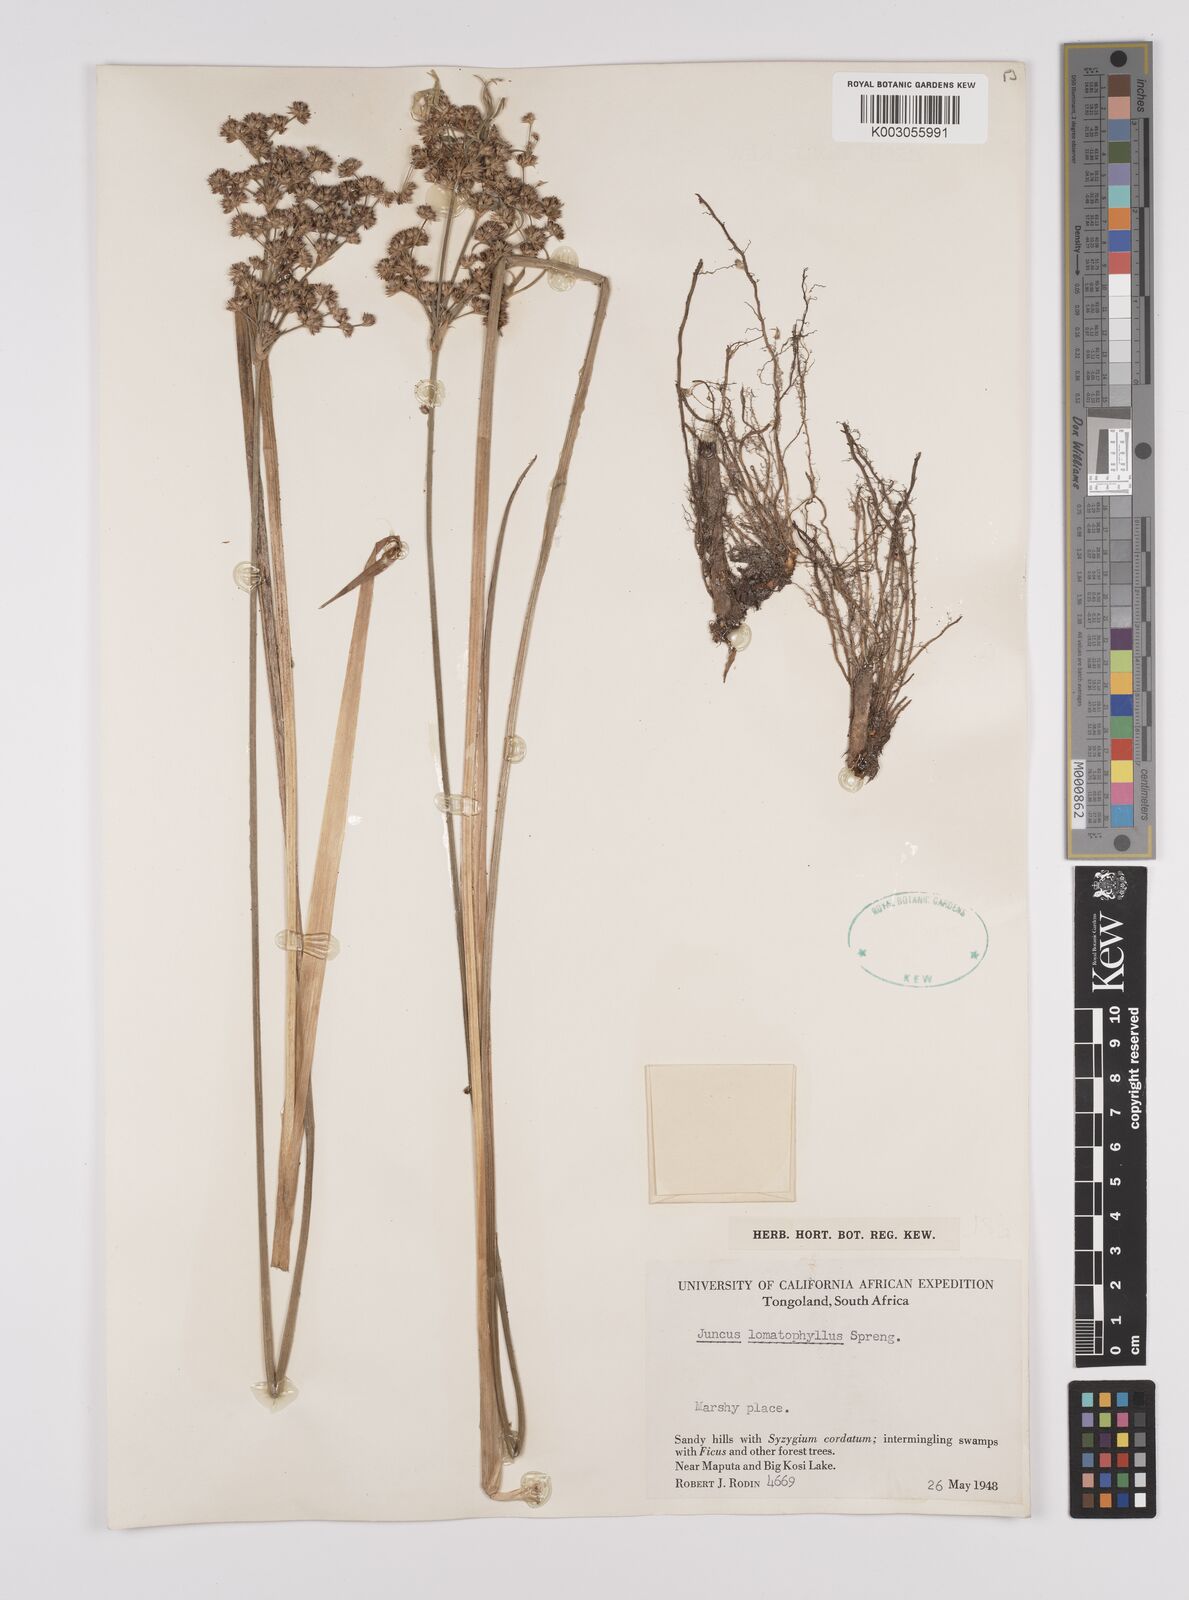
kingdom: Plantae
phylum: Tracheophyta
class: Liliopsida
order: Poales
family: Juncaceae
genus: Juncus
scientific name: Juncus lomatophyllus
